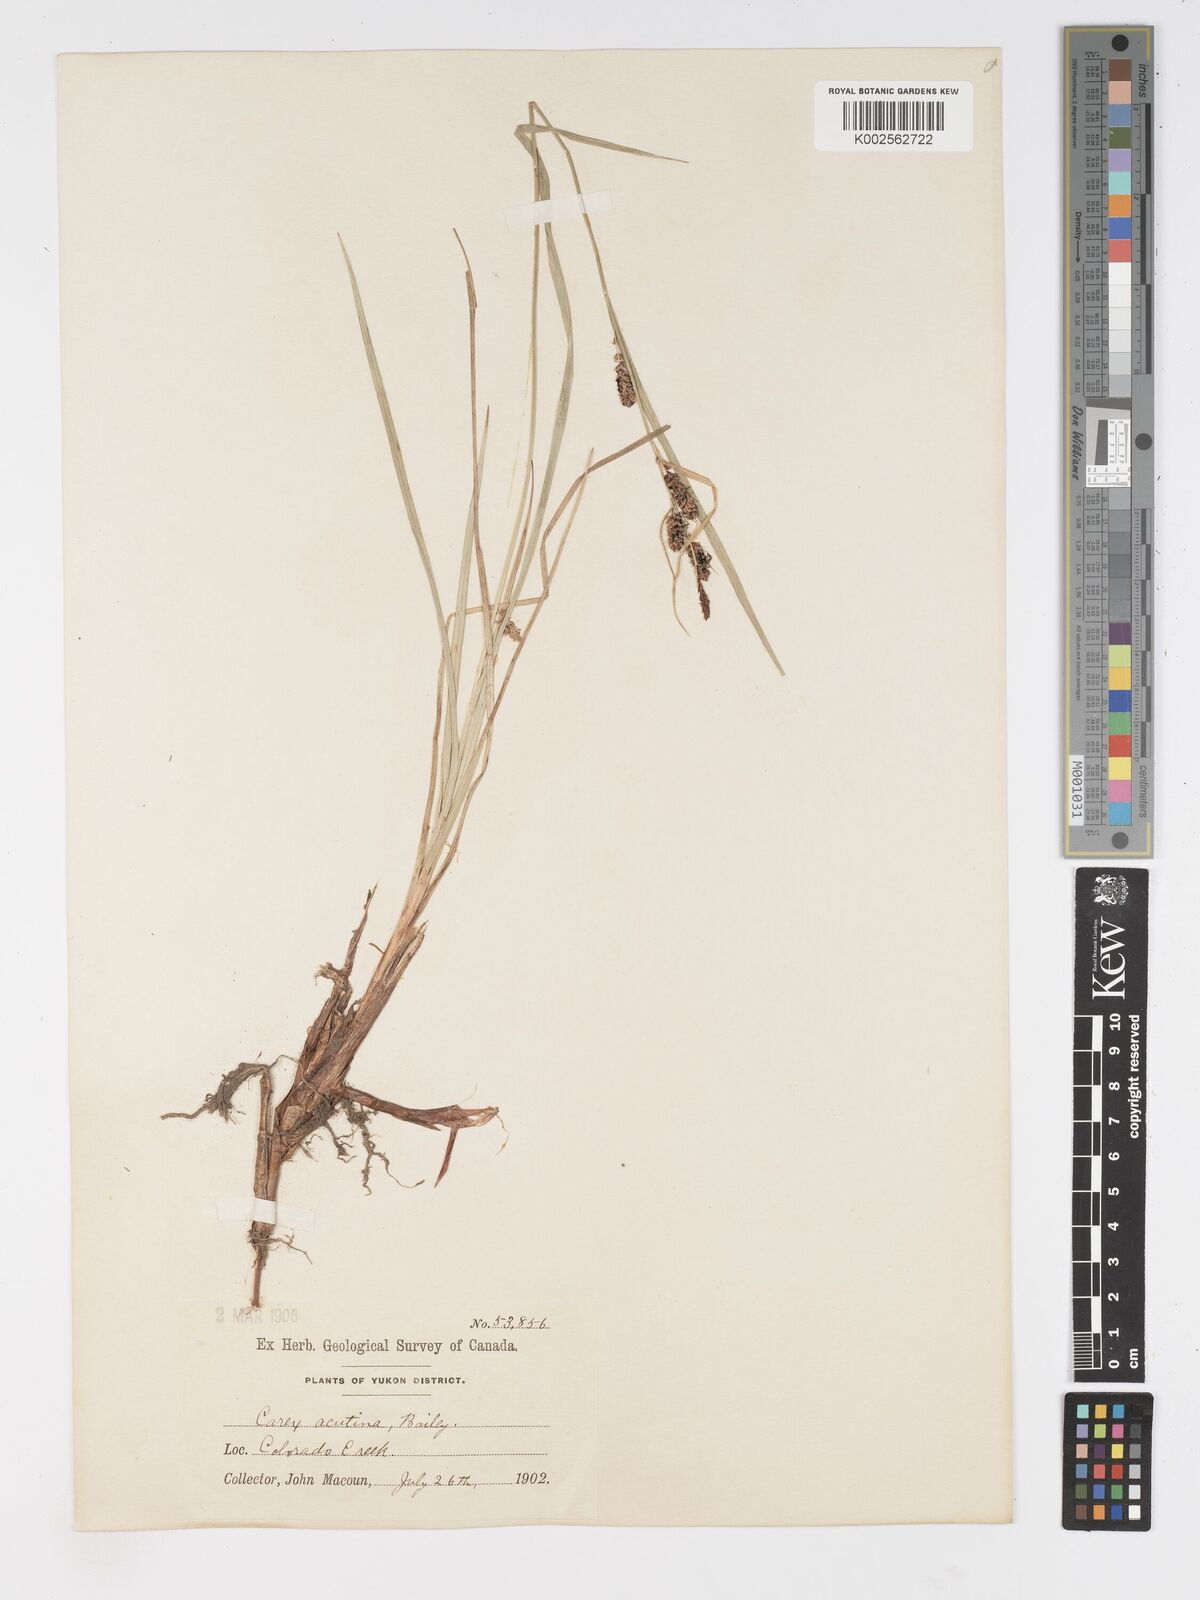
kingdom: Plantae
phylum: Tracheophyta
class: Liliopsida
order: Poales
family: Cyperaceae
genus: Carex
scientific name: Carex angustata
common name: Widefruit sedge
